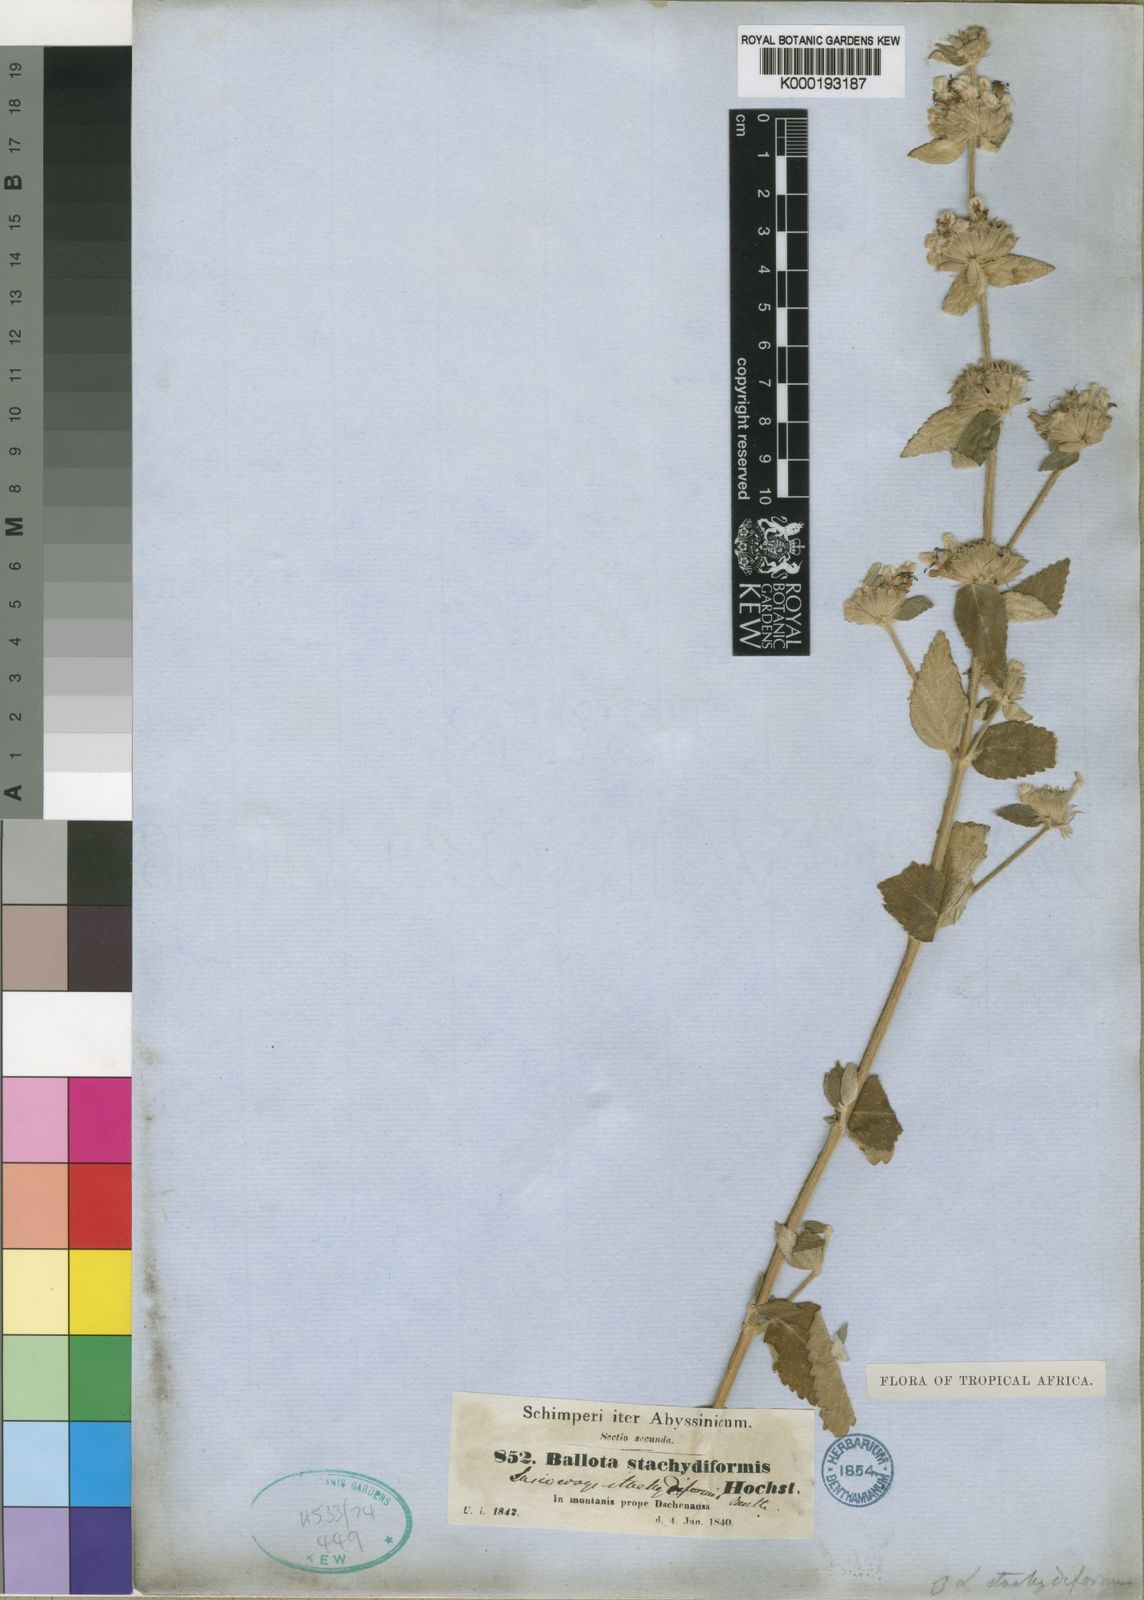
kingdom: Plantae
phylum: Tracheophyta
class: Magnoliopsida
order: Lamiales
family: Lamiaceae
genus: Leucas
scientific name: Leucas stachydiformis
